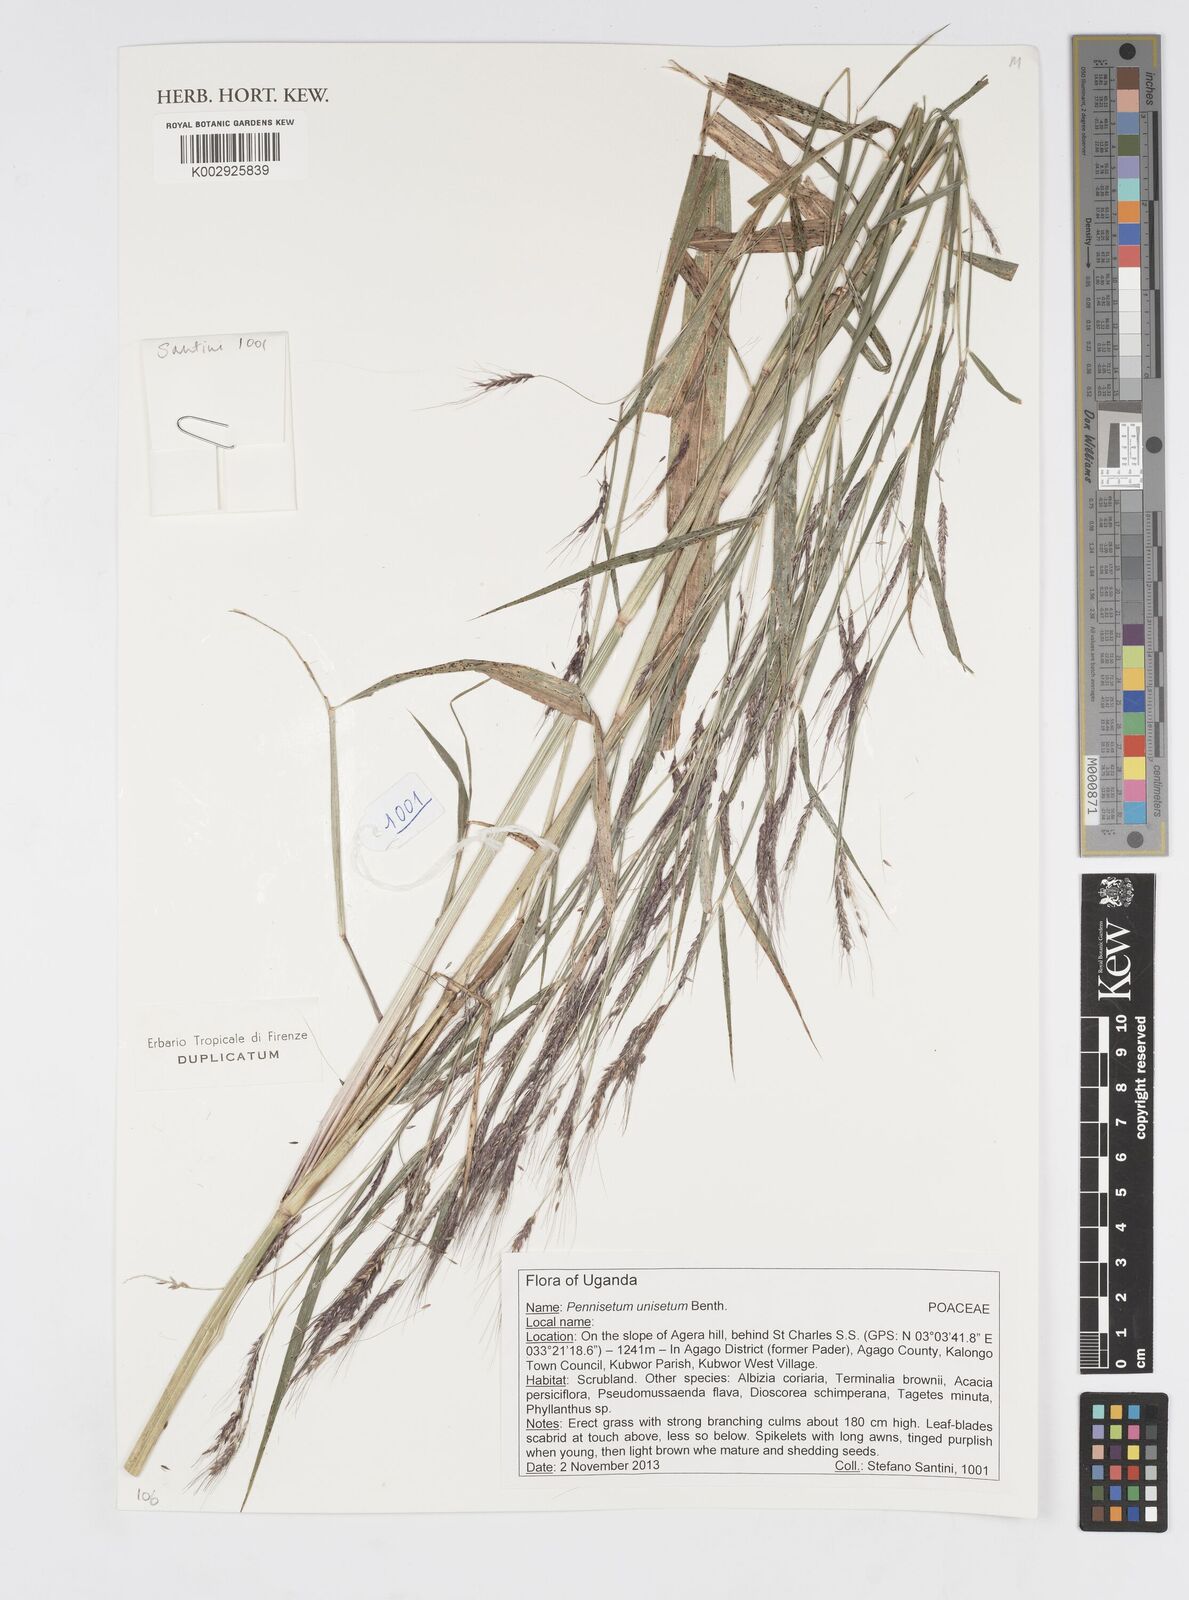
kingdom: Plantae
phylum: Tracheophyta
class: Liliopsida
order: Poales
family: Poaceae
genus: Cenchrus
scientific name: Cenchrus unisetus
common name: Natal grass
